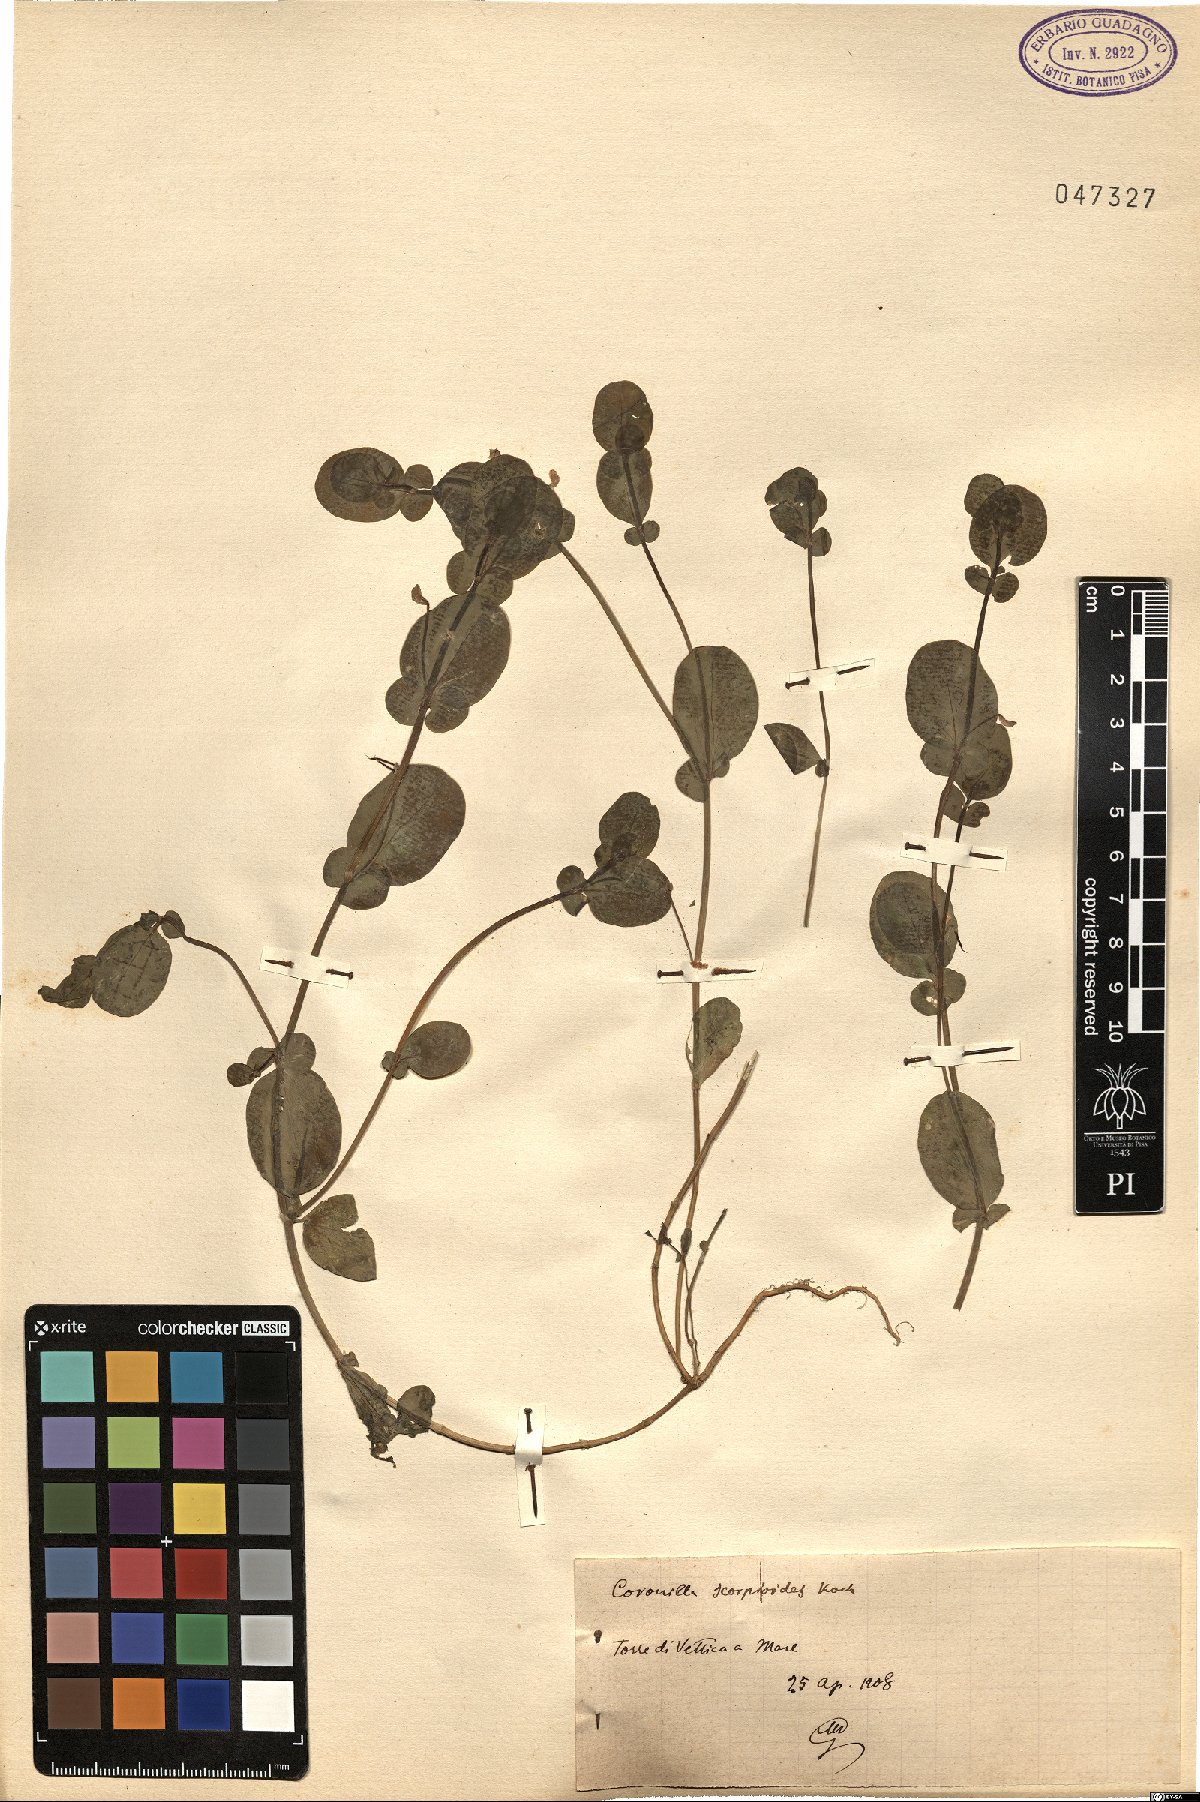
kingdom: Plantae
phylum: Tracheophyta
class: Magnoliopsida
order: Fabales
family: Fabaceae
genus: Coronilla
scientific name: Coronilla scorpioides
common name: Annual scorpion-vetch
